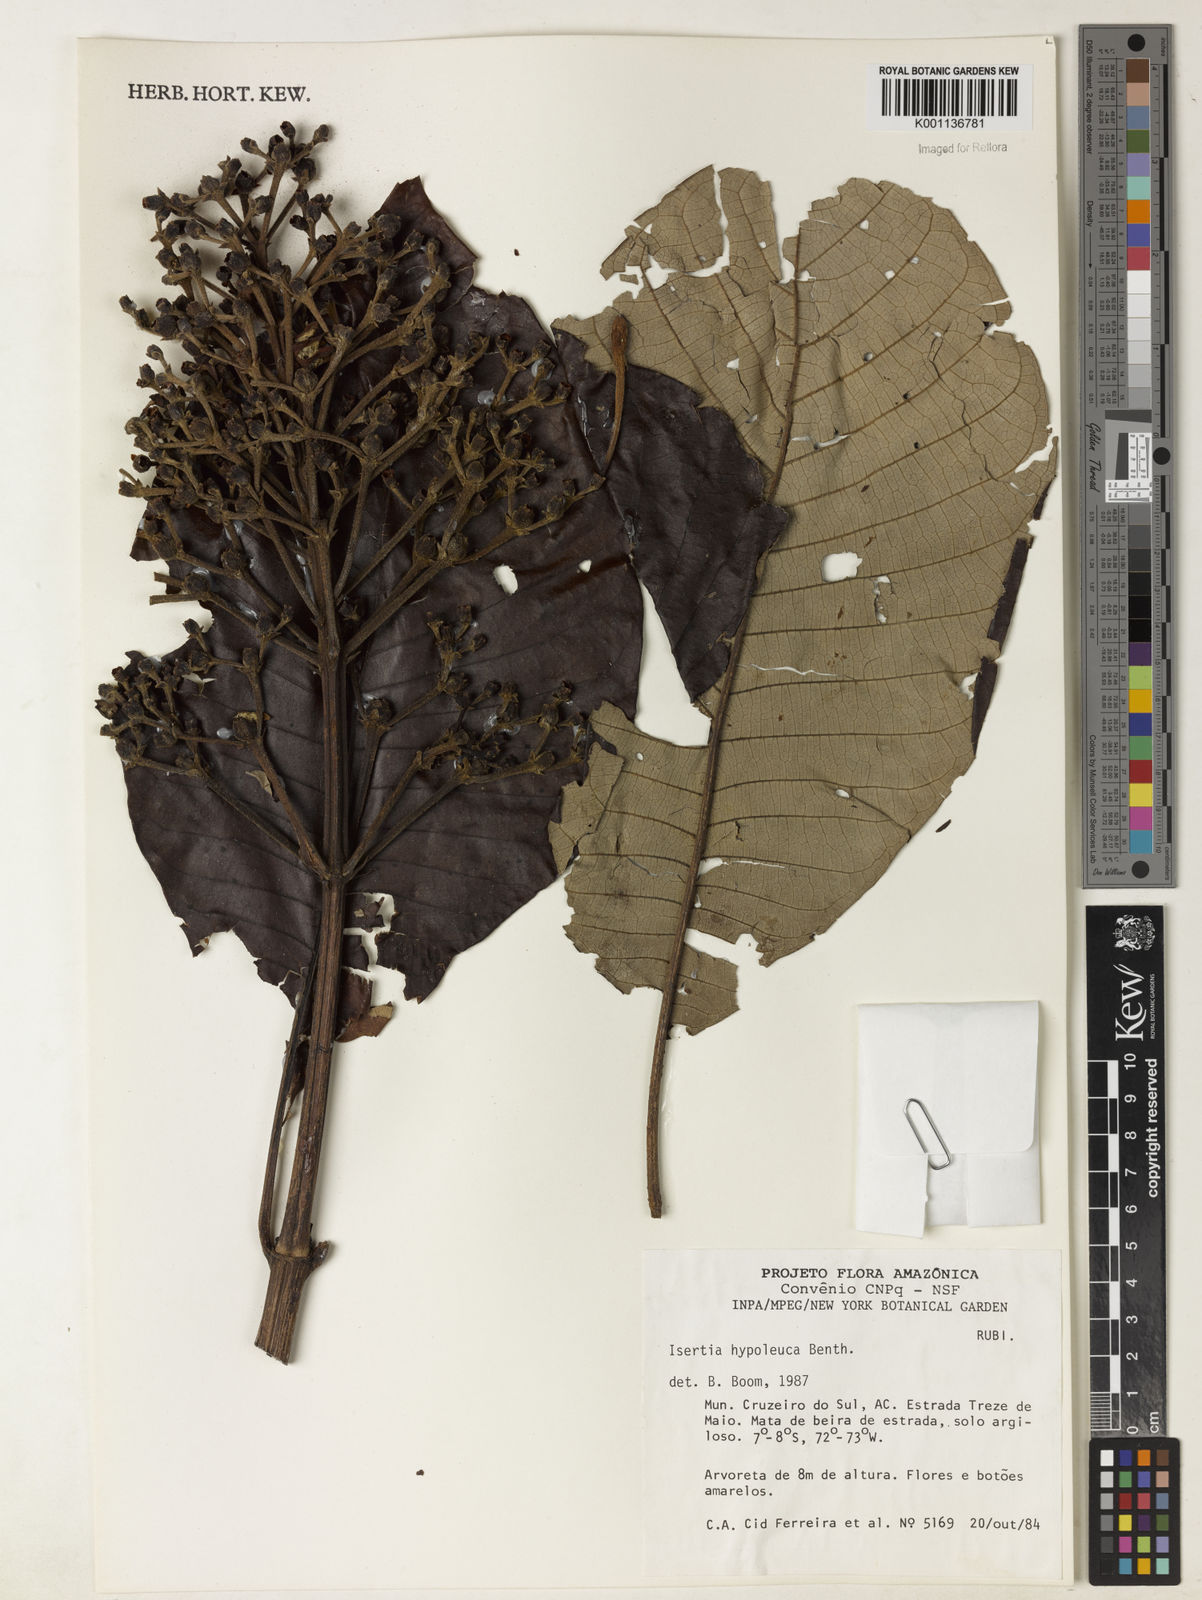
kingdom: Plantae
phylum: Tracheophyta
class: Magnoliopsida
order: Gentianales
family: Rubiaceae
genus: Isertia
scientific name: Isertia hypoleuca
